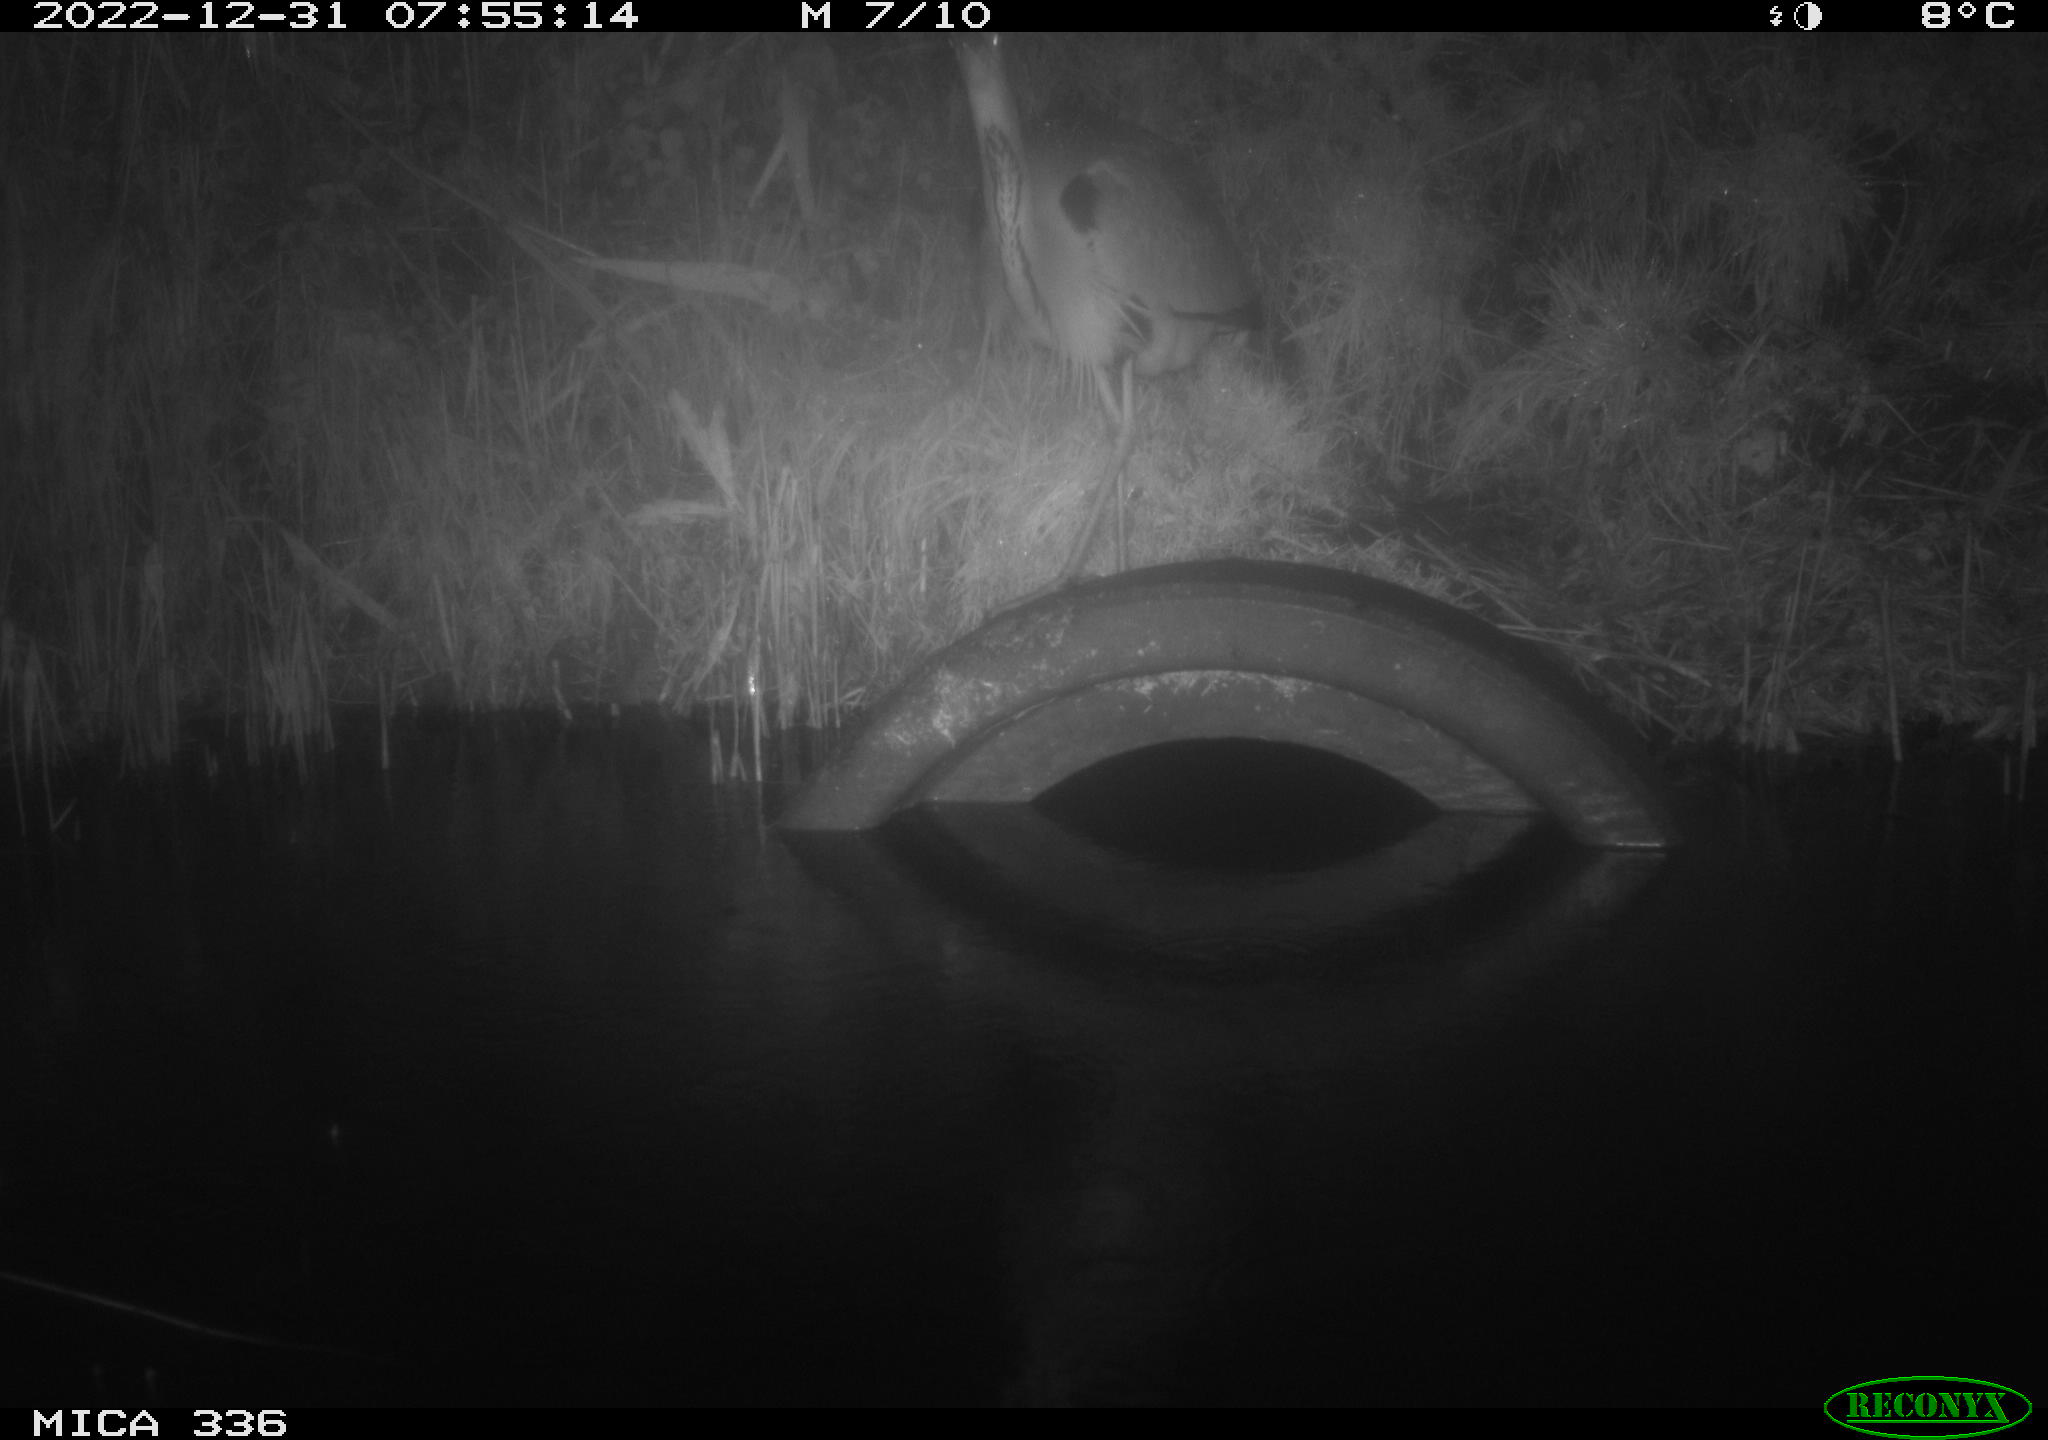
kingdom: Animalia
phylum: Chordata
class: Aves
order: Pelecaniformes
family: Ardeidae
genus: Ardea
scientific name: Ardea cinerea
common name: Grey heron
